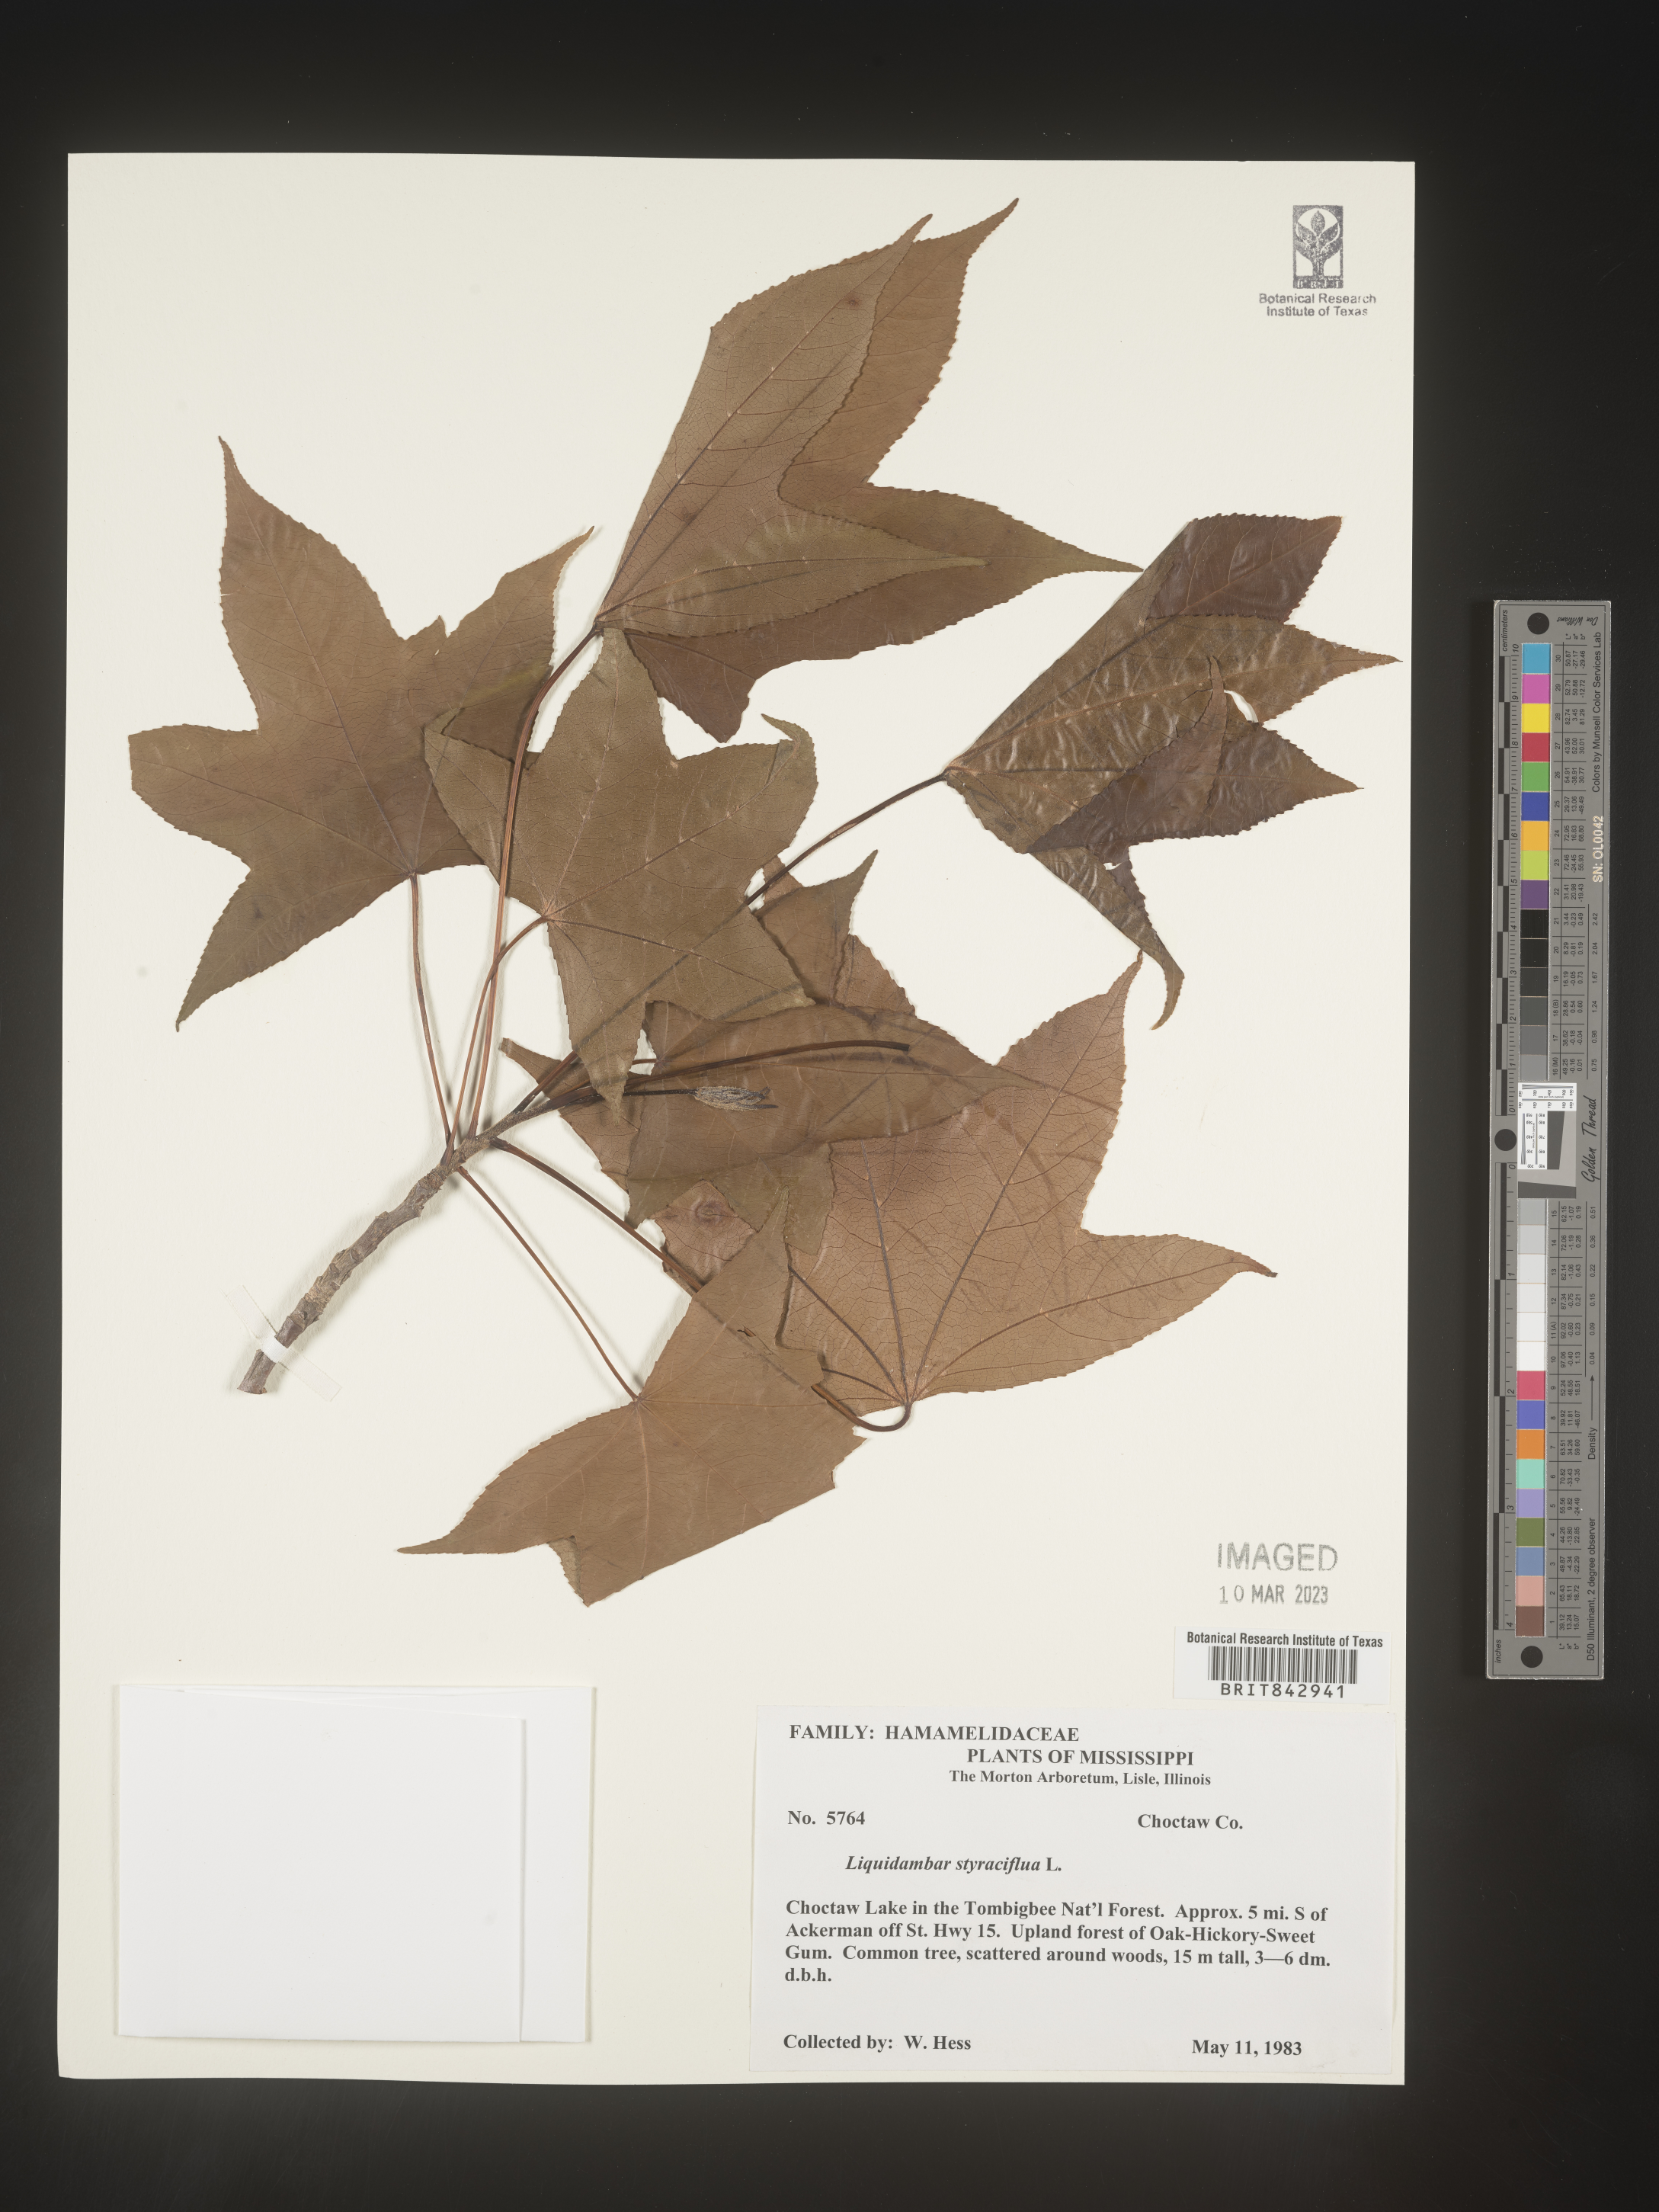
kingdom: Plantae
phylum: Tracheophyta
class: Magnoliopsida
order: Saxifragales
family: Altingiaceae
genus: Liquidambar
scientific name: Liquidambar styraciflua
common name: Sweet gum
